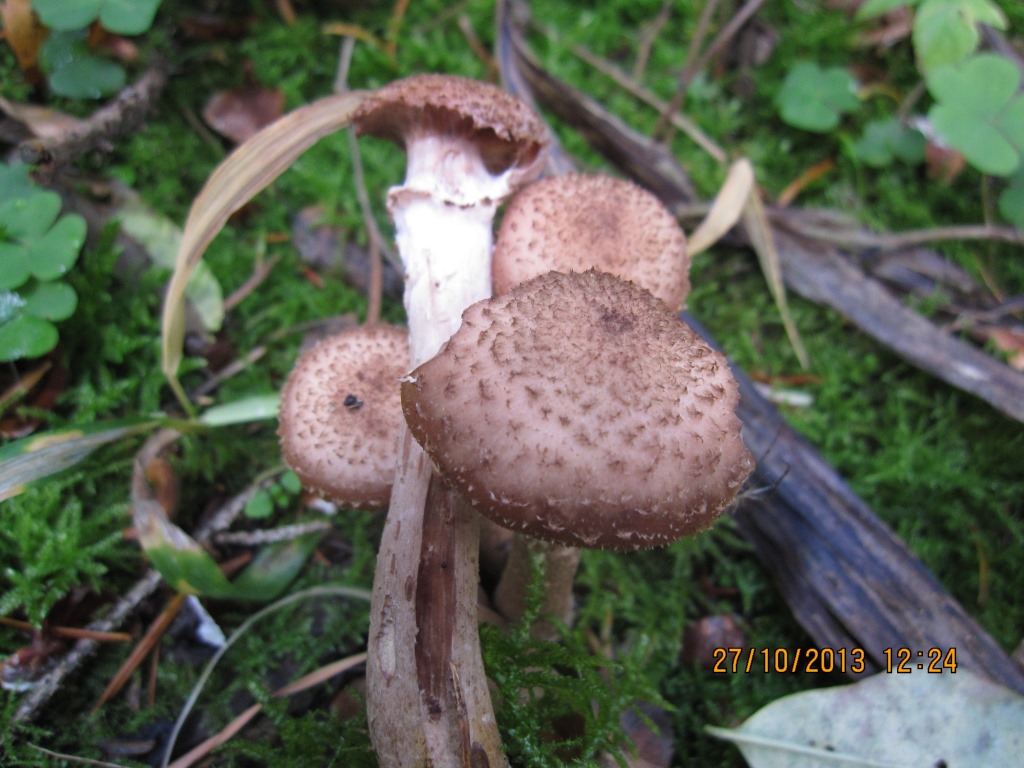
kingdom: Fungi
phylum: Basidiomycota
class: Agaricomycetes
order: Agaricales
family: Physalacriaceae
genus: Armillaria
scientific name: Armillaria ostoyae
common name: mørk honningsvamp
